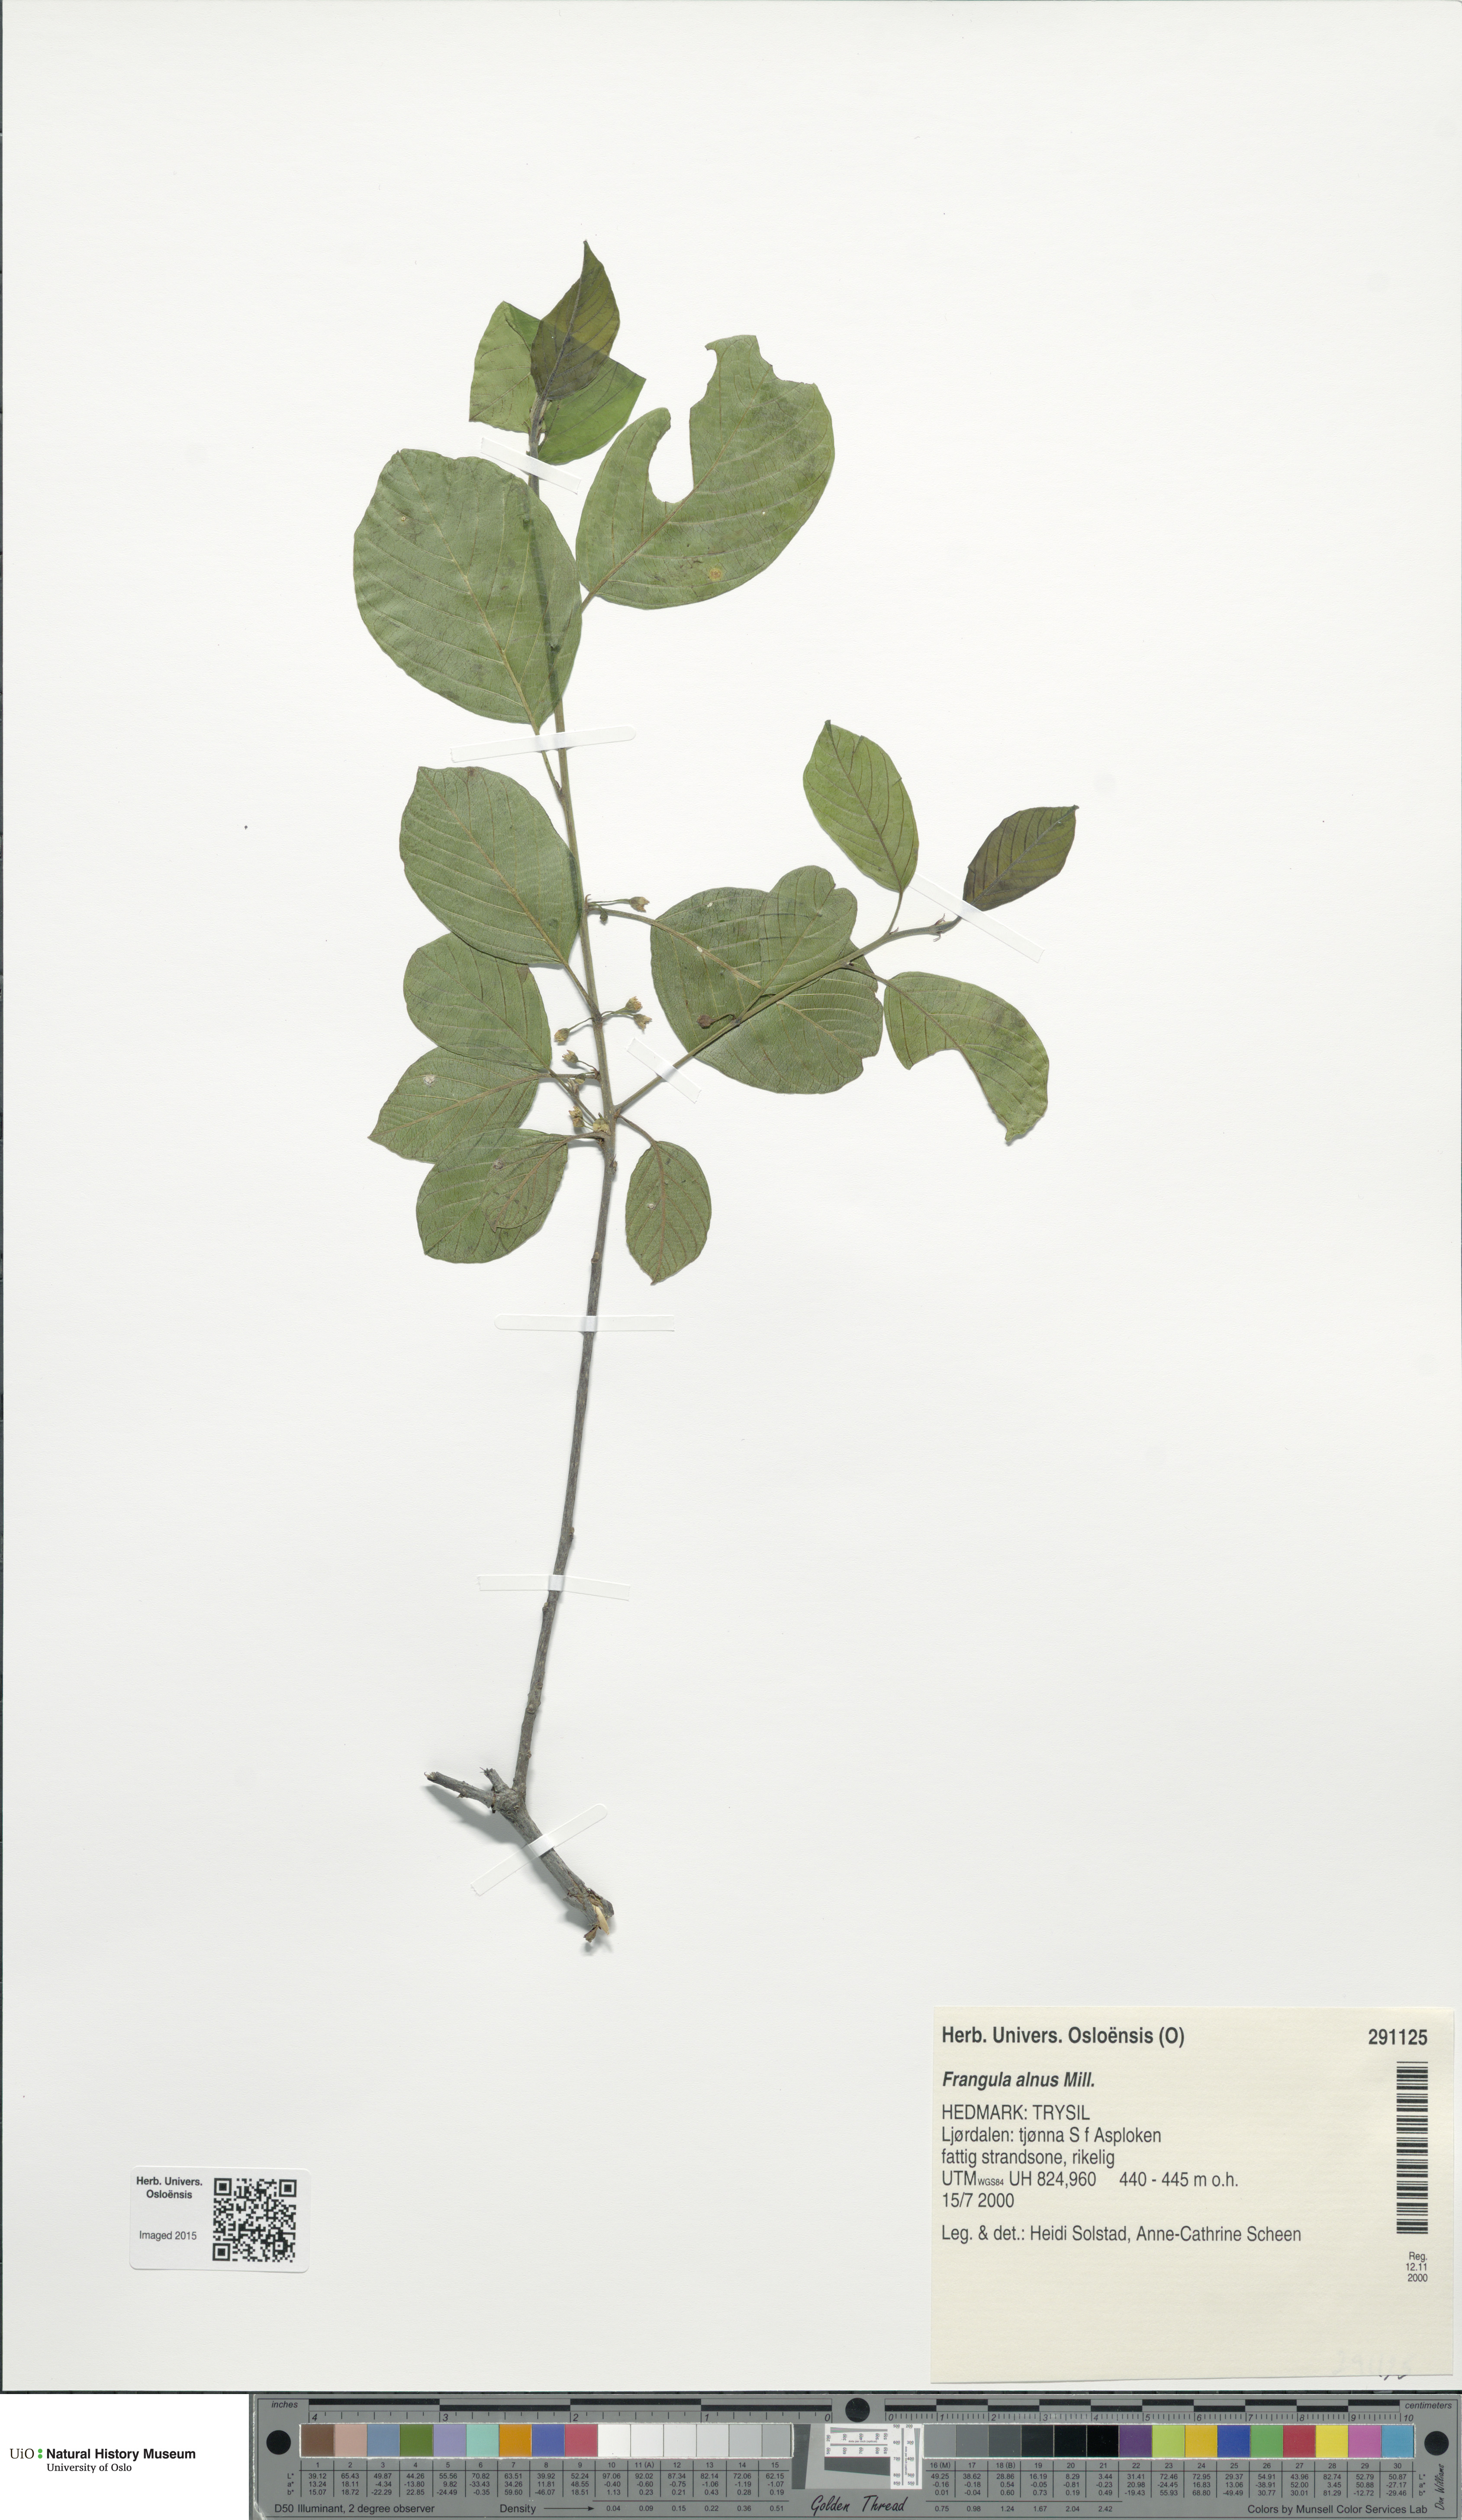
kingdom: Plantae
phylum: Tracheophyta
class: Magnoliopsida
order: Rosales
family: Rhamnaceae
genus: Frangula
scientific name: Frangula alnus
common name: Alder buckthorn
